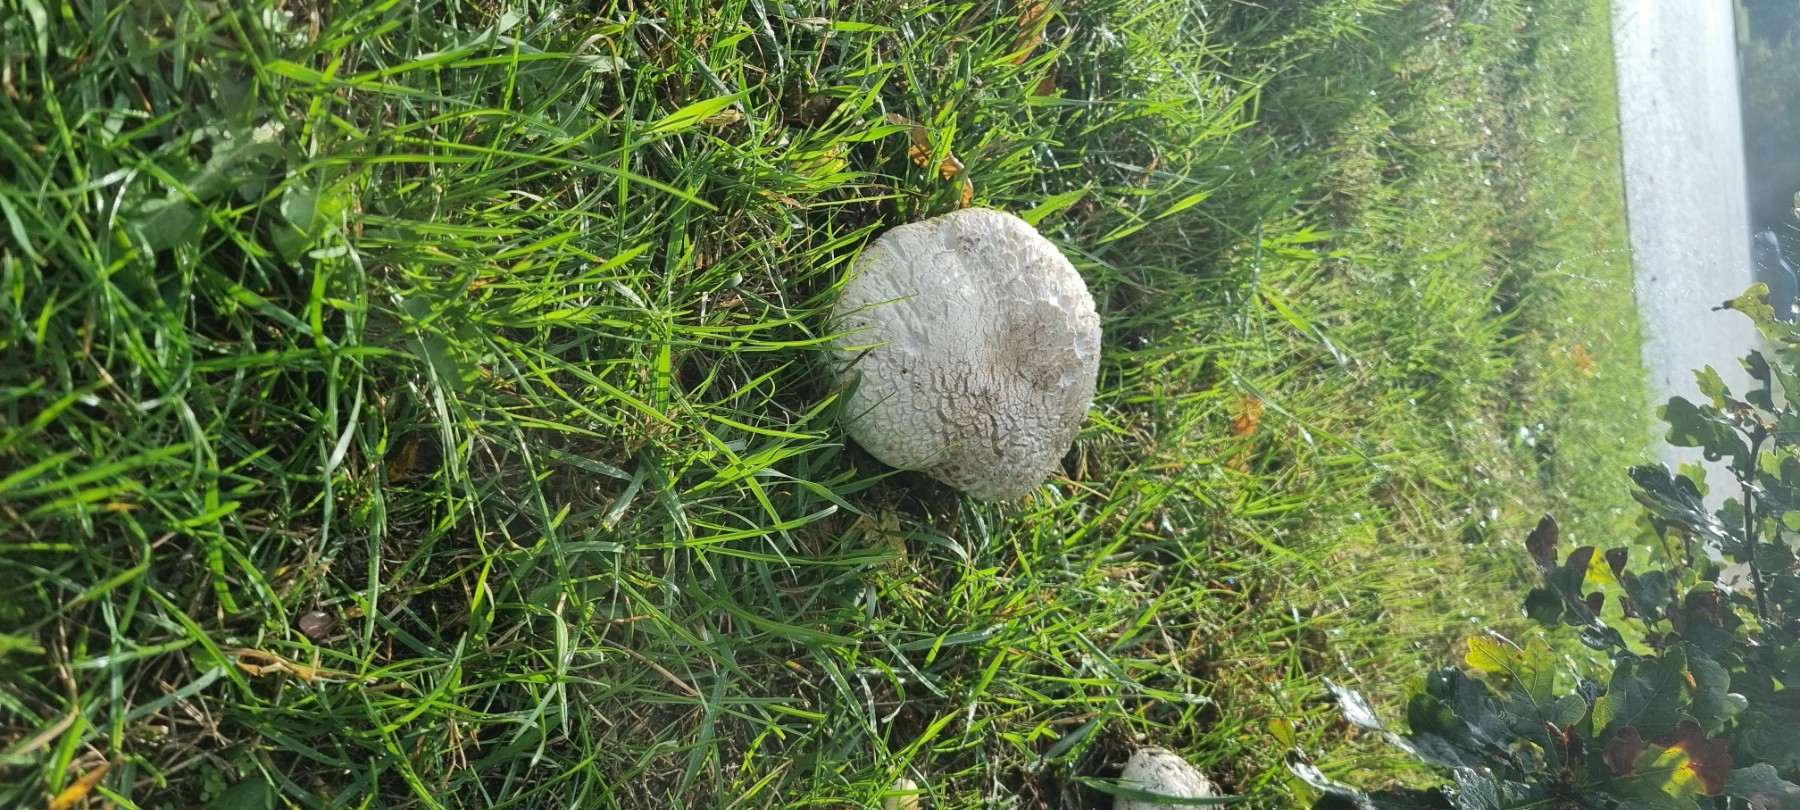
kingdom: Fungi
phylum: Basidiomycota
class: Agaricomycetes
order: Agaricales
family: Agaricaceae
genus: Agaricus
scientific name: Agaricus bernardii
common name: strandengs-champignon
